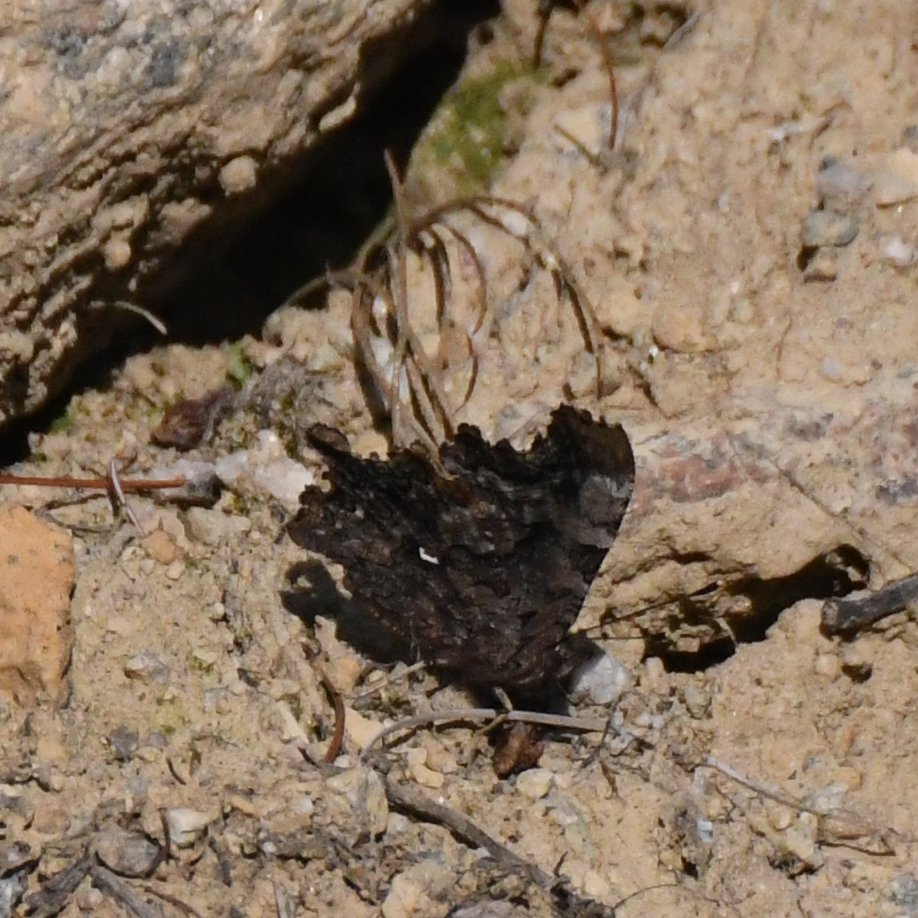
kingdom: Animalia
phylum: Arthropoda
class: Insecta
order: Lepidoptera
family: Nymphalidae
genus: Polygonia
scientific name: Polygonia faunus
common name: Green Comma
